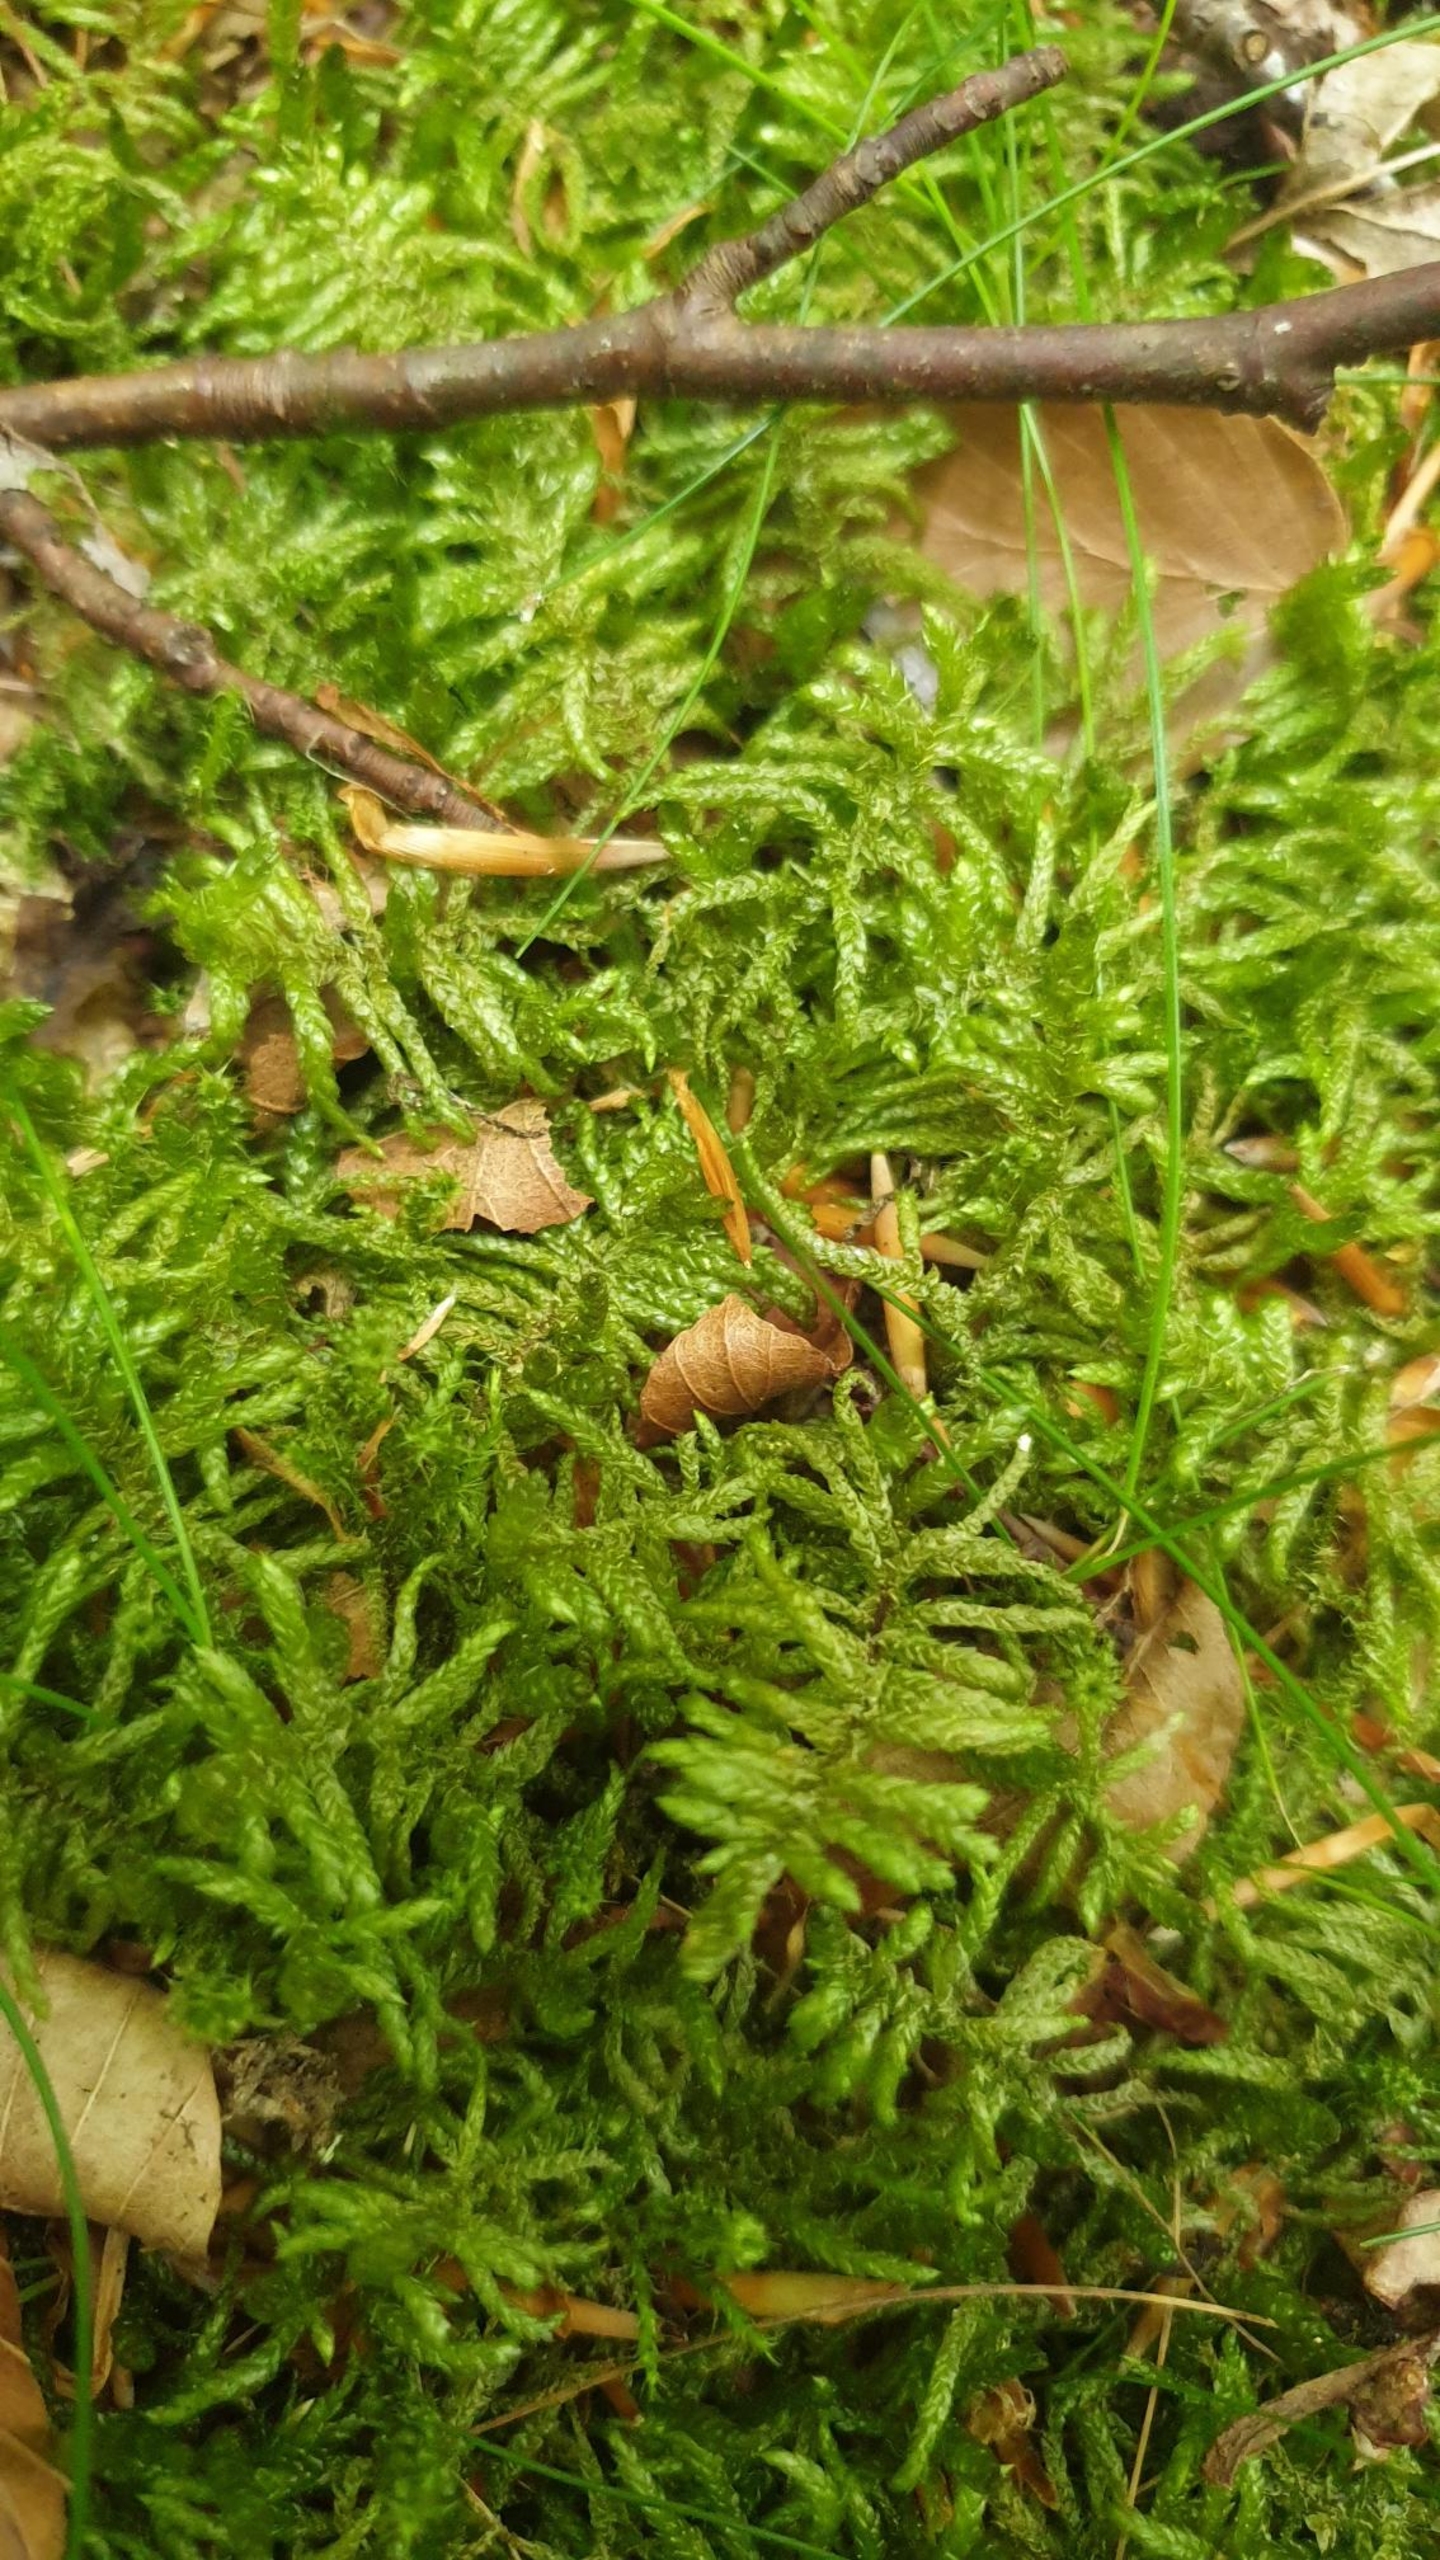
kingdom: Plantae
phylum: Bryophyta
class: Bryopsida
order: Hypnales
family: Brachytheciaceae
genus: Pseudoscleropodium
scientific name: Pseudoscleropodium purum
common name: Hulbladet fedtmos
